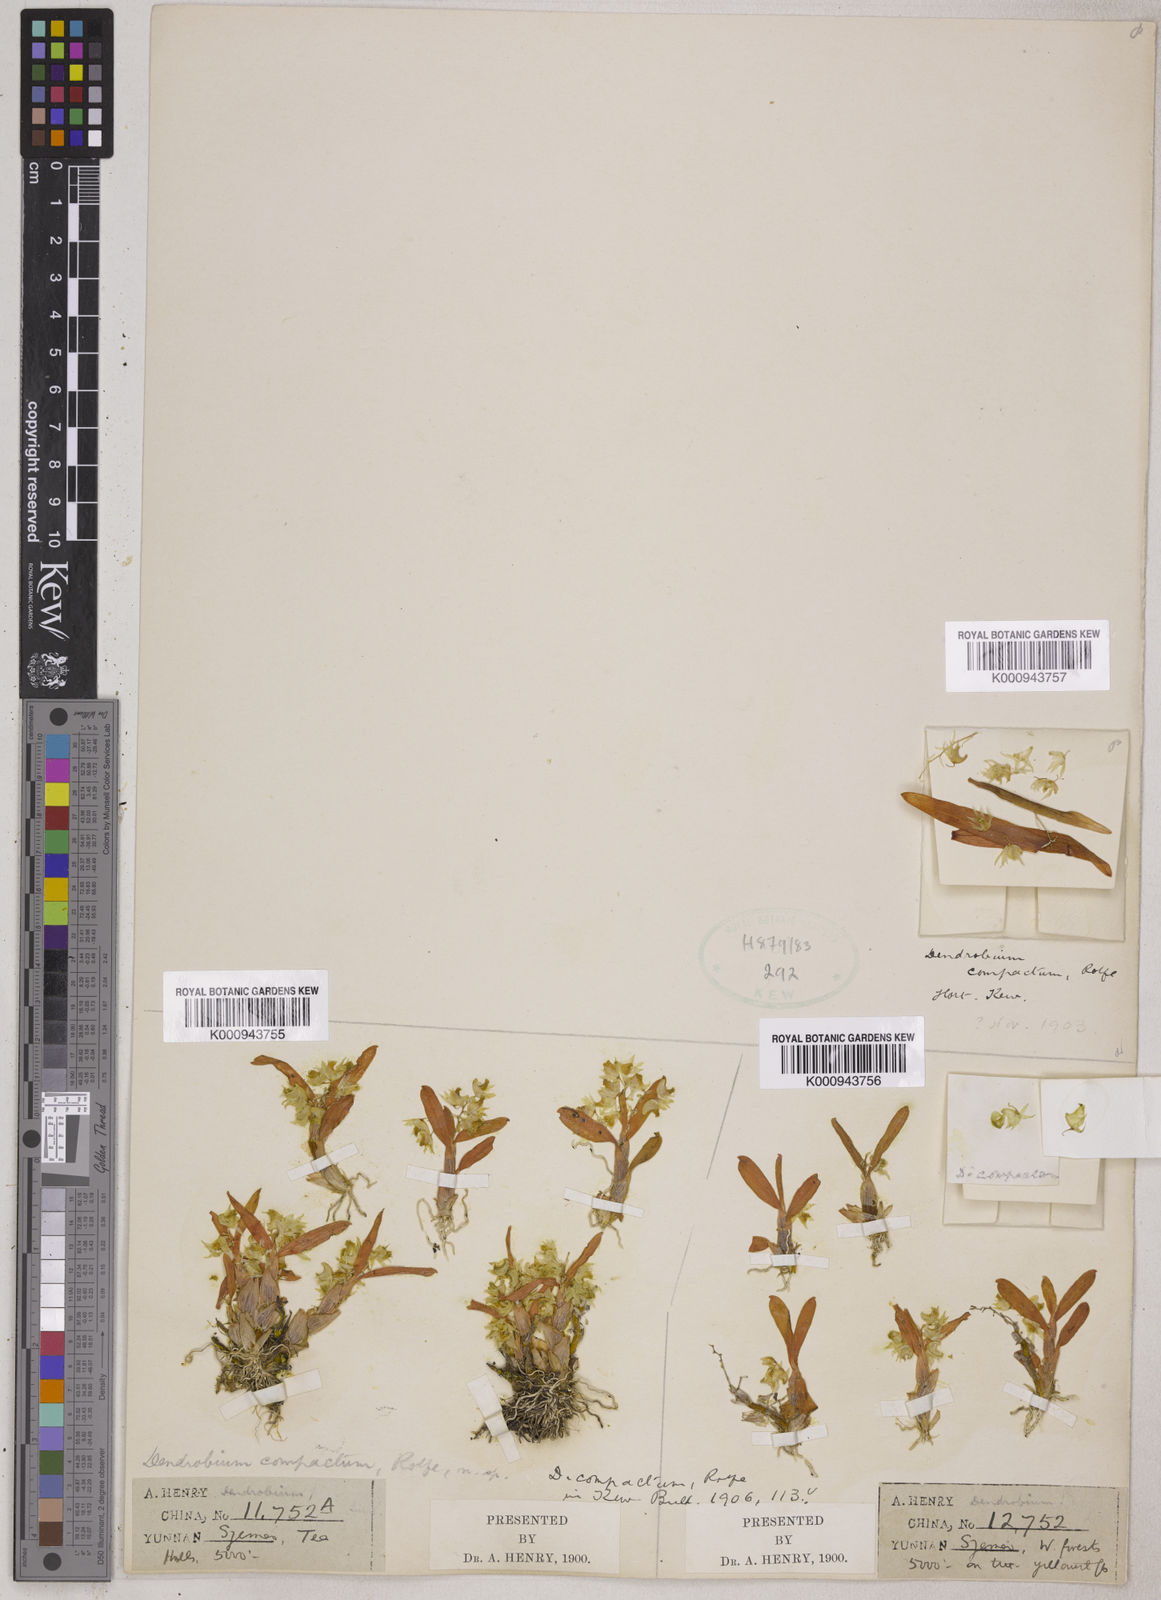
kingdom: Plantae
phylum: Tracheophyta
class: Liliopsida
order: Asparagales
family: Orchidaceae
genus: Dendrobium
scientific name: Dendrobium
